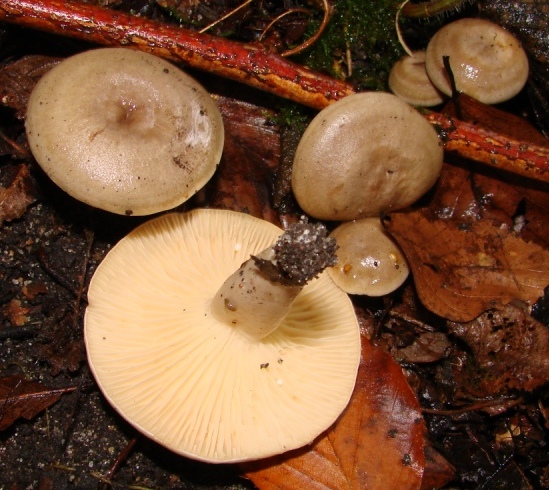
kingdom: Fungi
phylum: Basidiomycota
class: Agaricomycetes
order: Russulales
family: Russulaceae
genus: Lactarius
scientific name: Lactarius pyrogalus
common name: hassel-mælkehat
